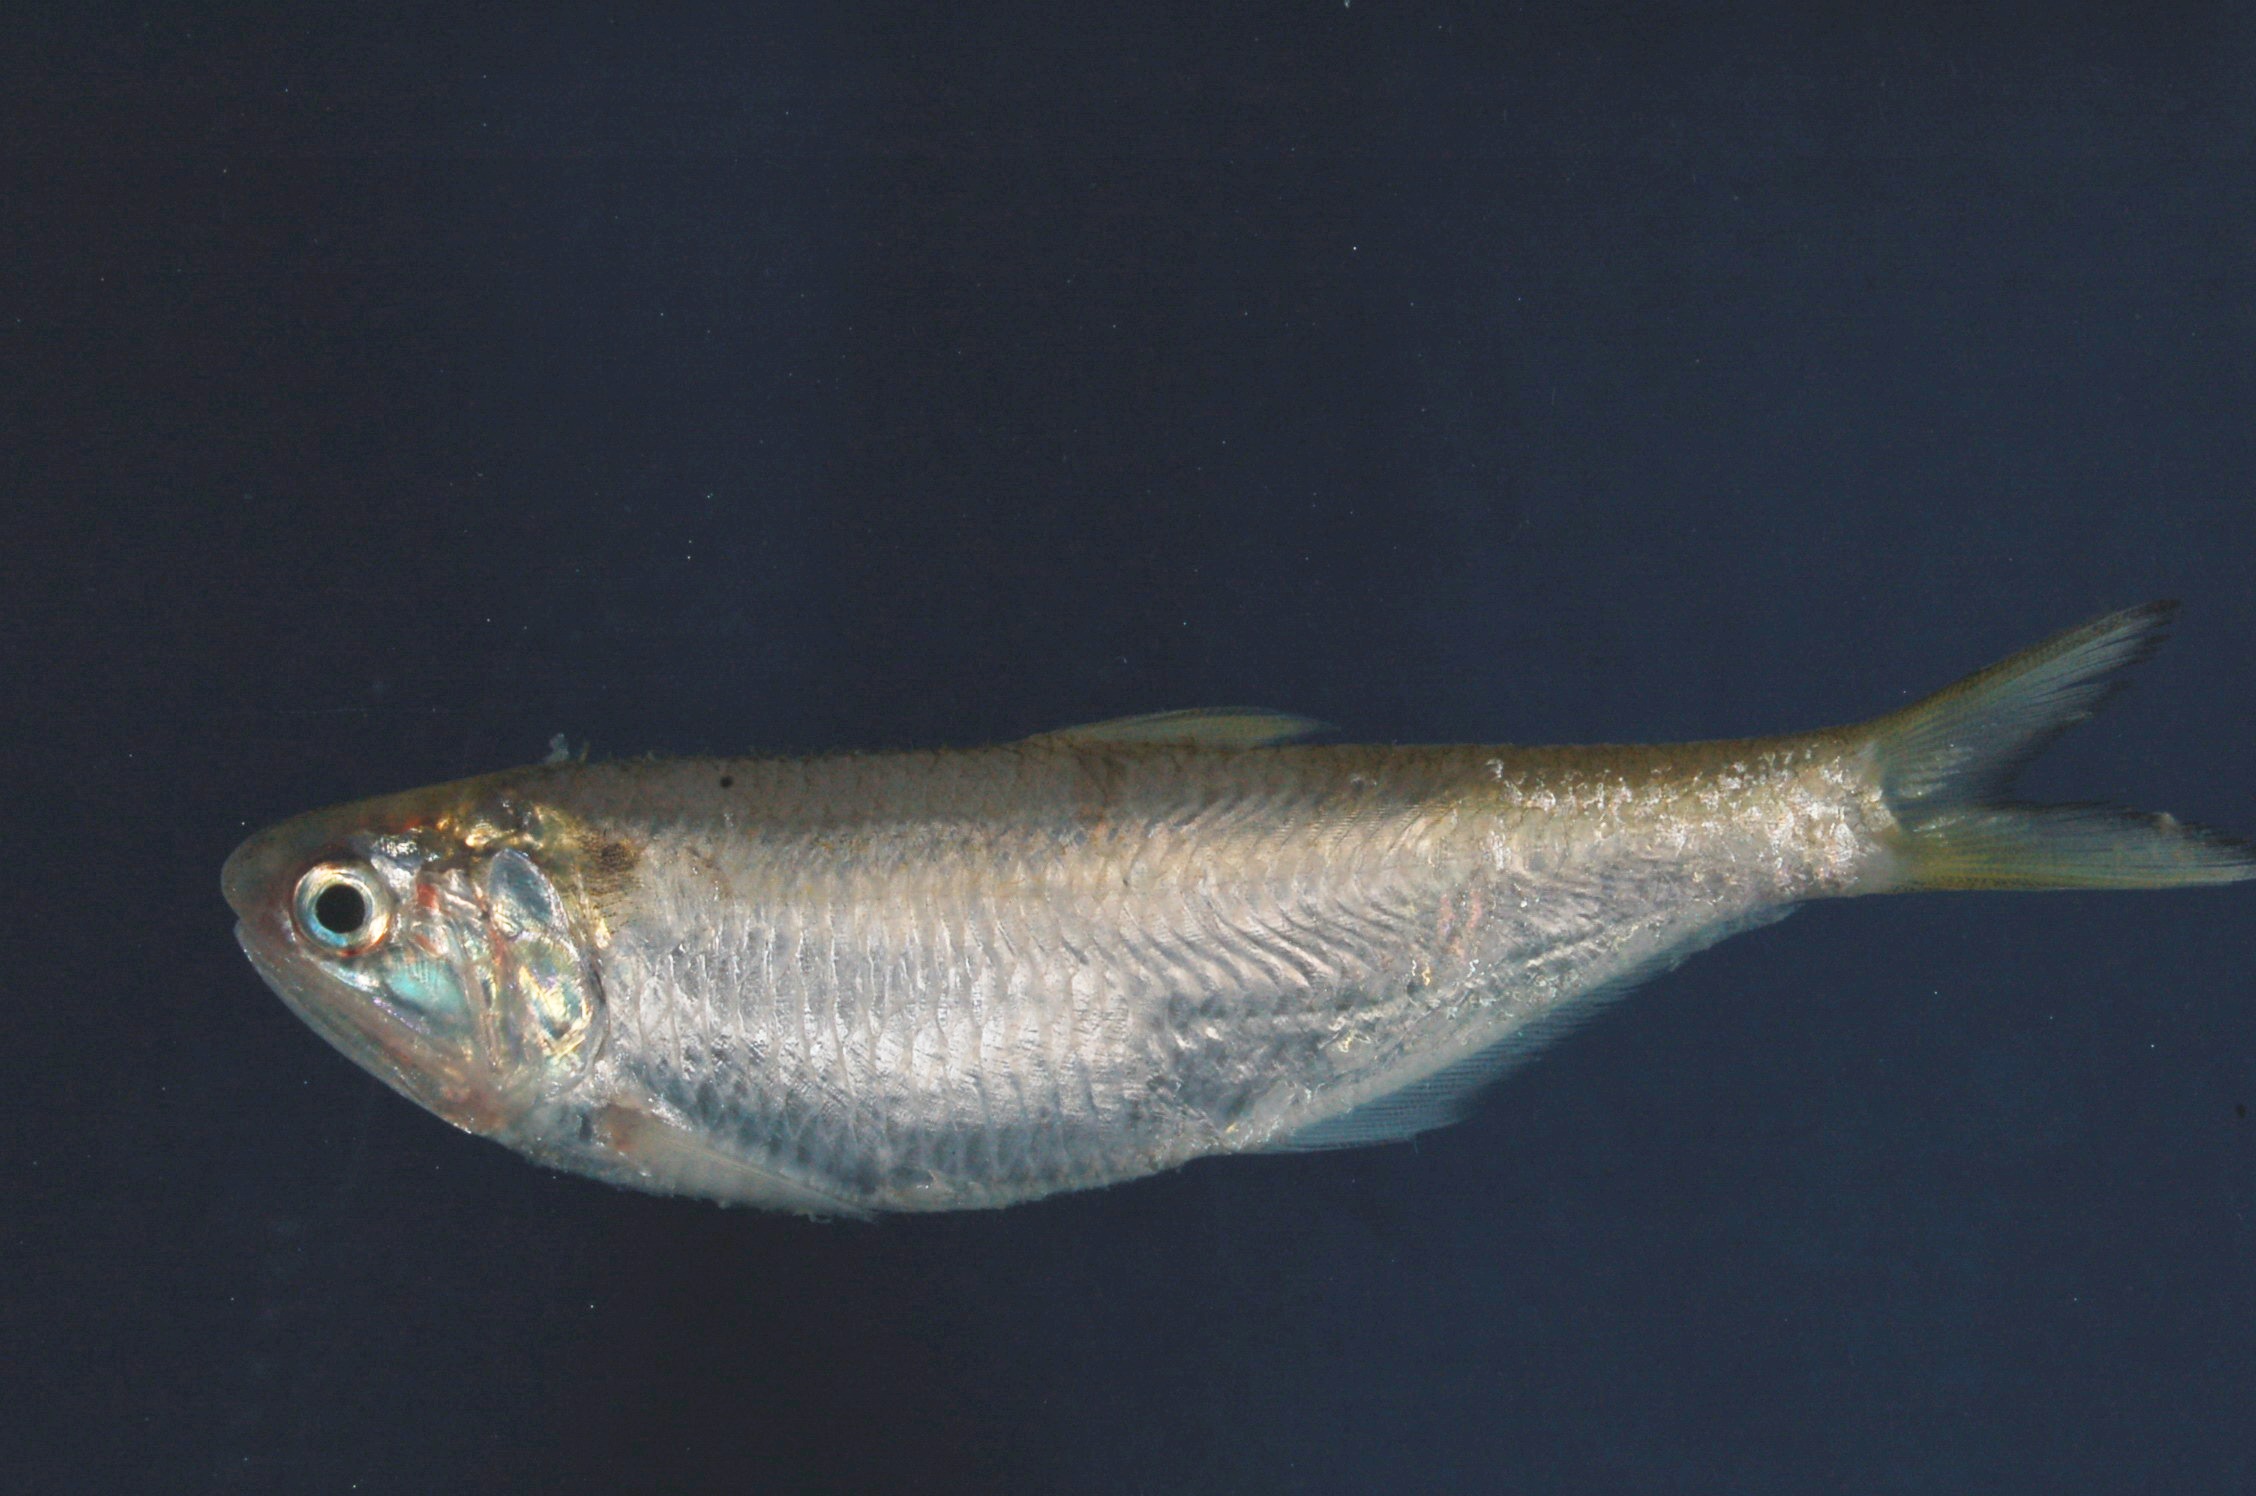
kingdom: Animalia
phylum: Chordata
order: Clupeiformes
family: Engraulidae
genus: Thryssa
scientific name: Thryssa vitrirostris
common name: Orangemouth anchovy
